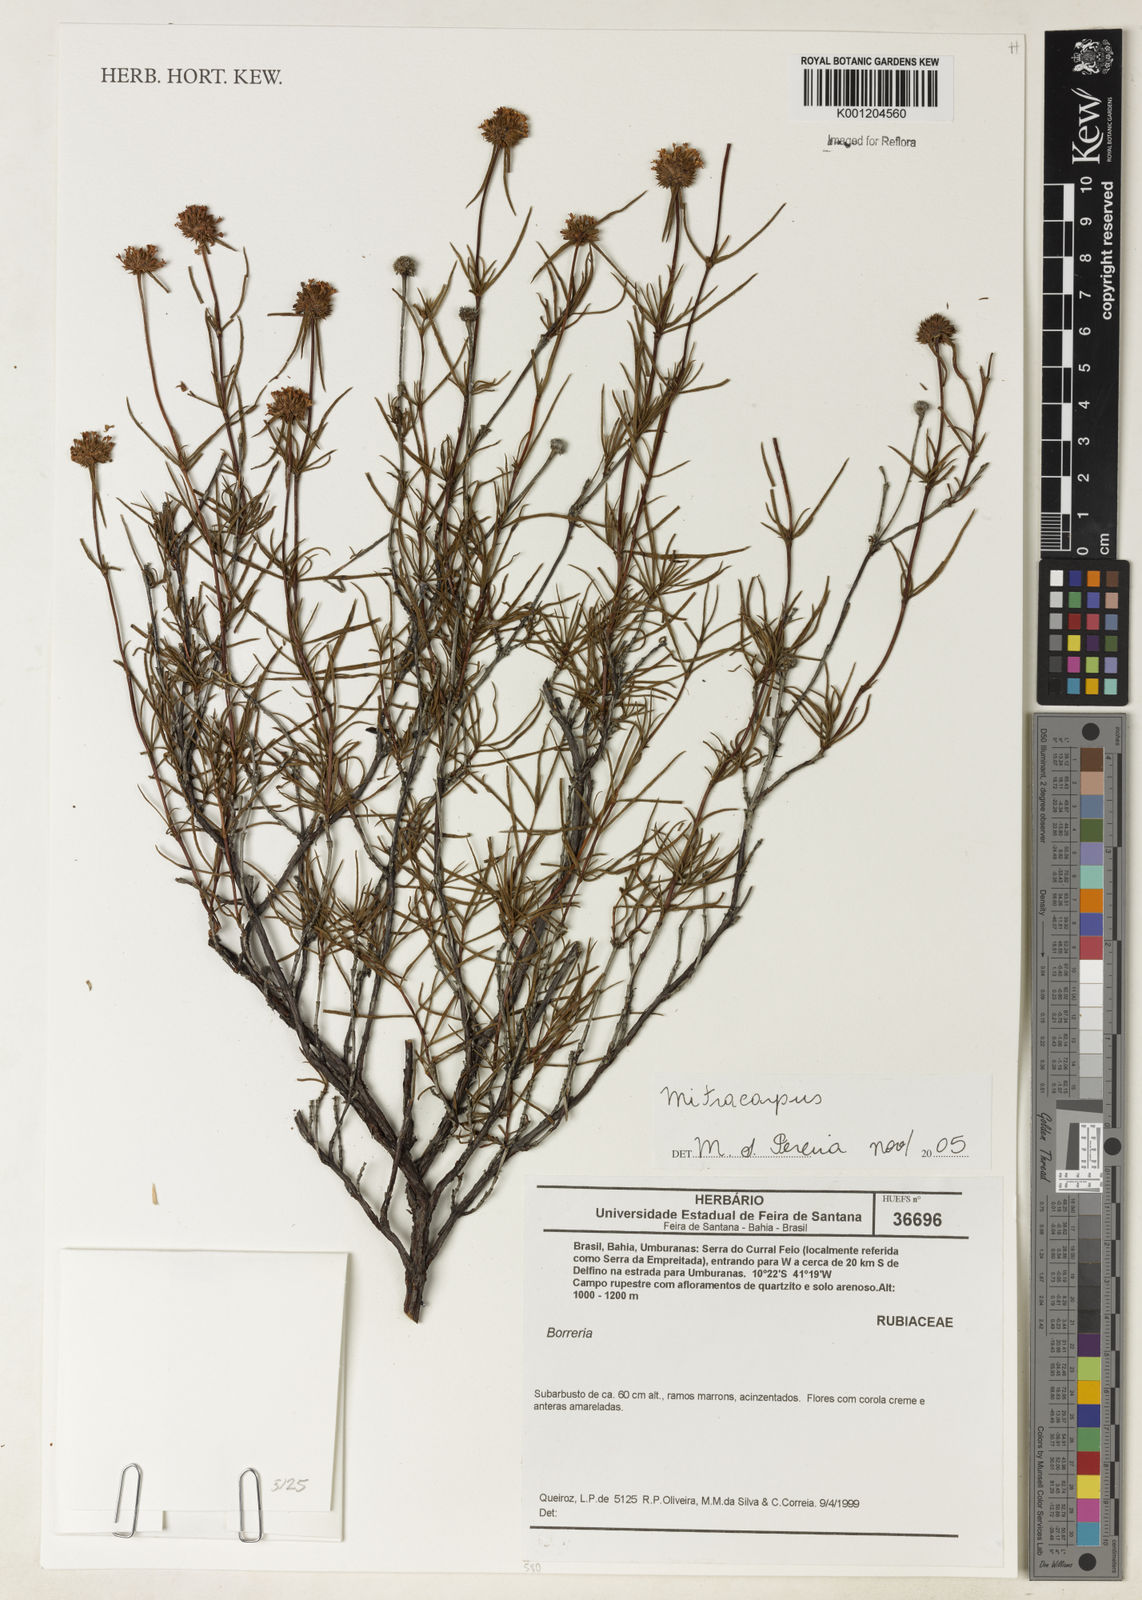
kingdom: Plantae
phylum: Tracheophyta
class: Magnoliopsida
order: Gentianales
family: Rubiaceae
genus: Mitracarpus
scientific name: Mitracarpus
